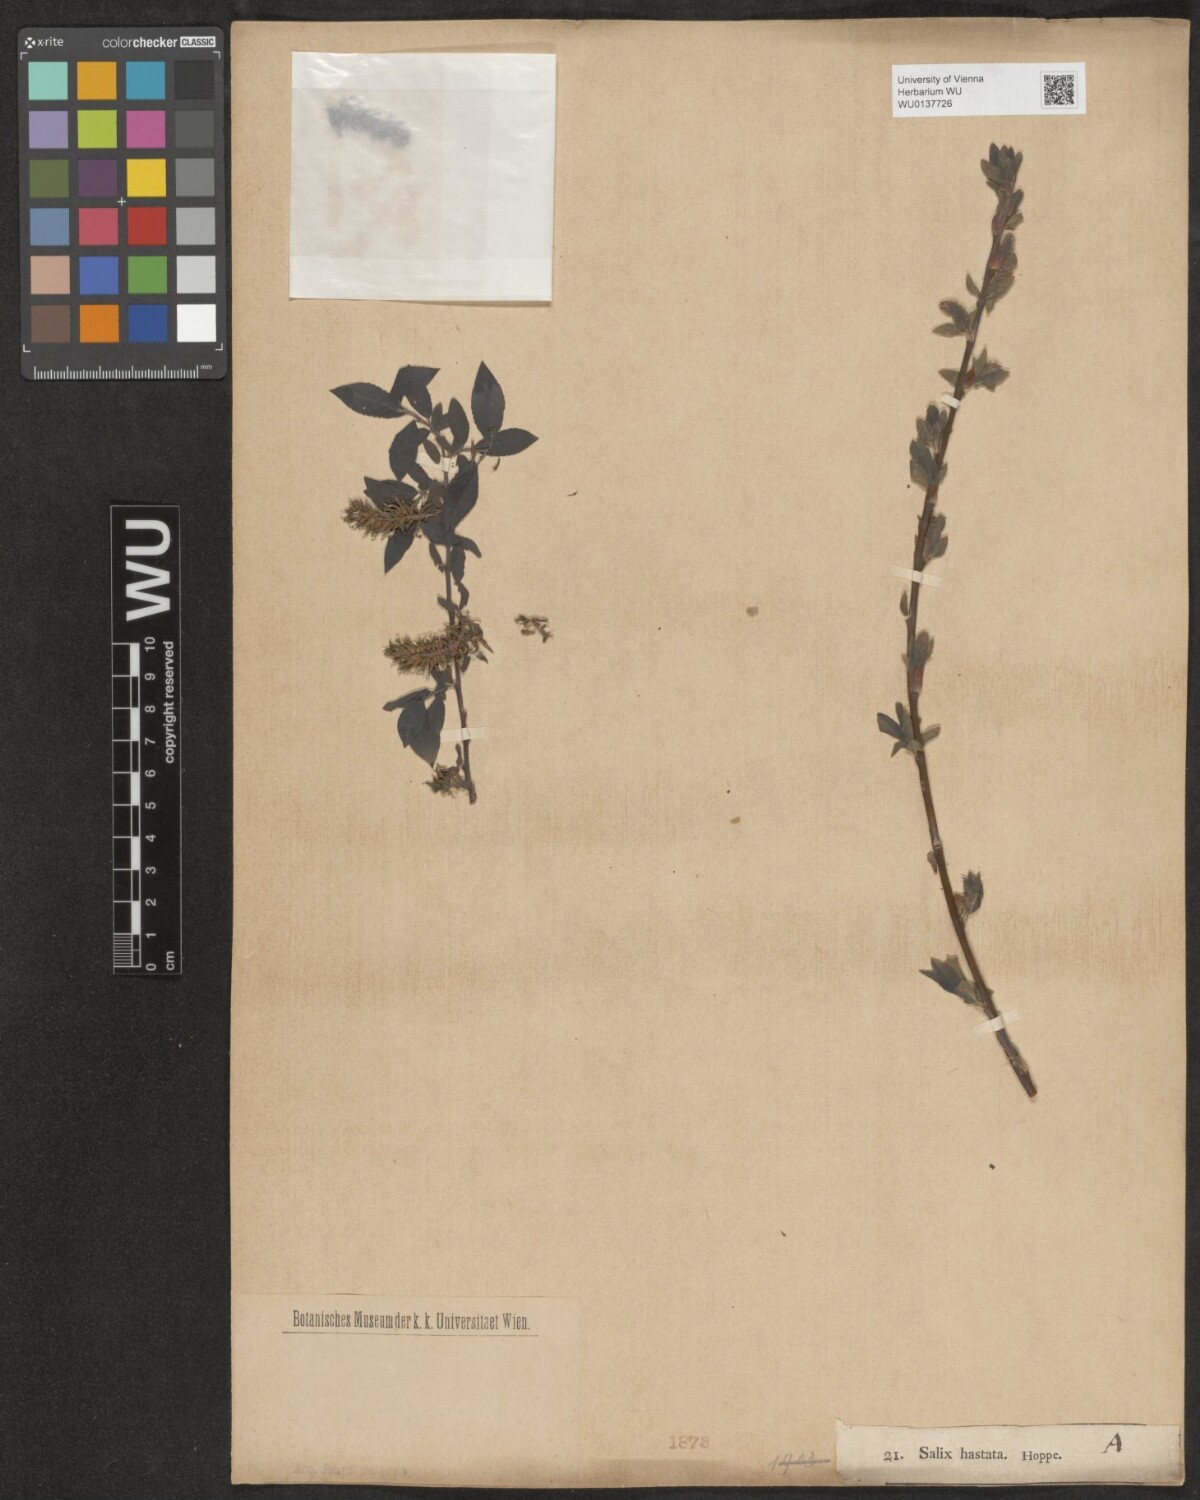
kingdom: Plantae
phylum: Tracheophyta
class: Magnoliopsida
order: Malpighiales
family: Salicaceae
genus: Salix
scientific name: Salix hastata
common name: Halberd willow
